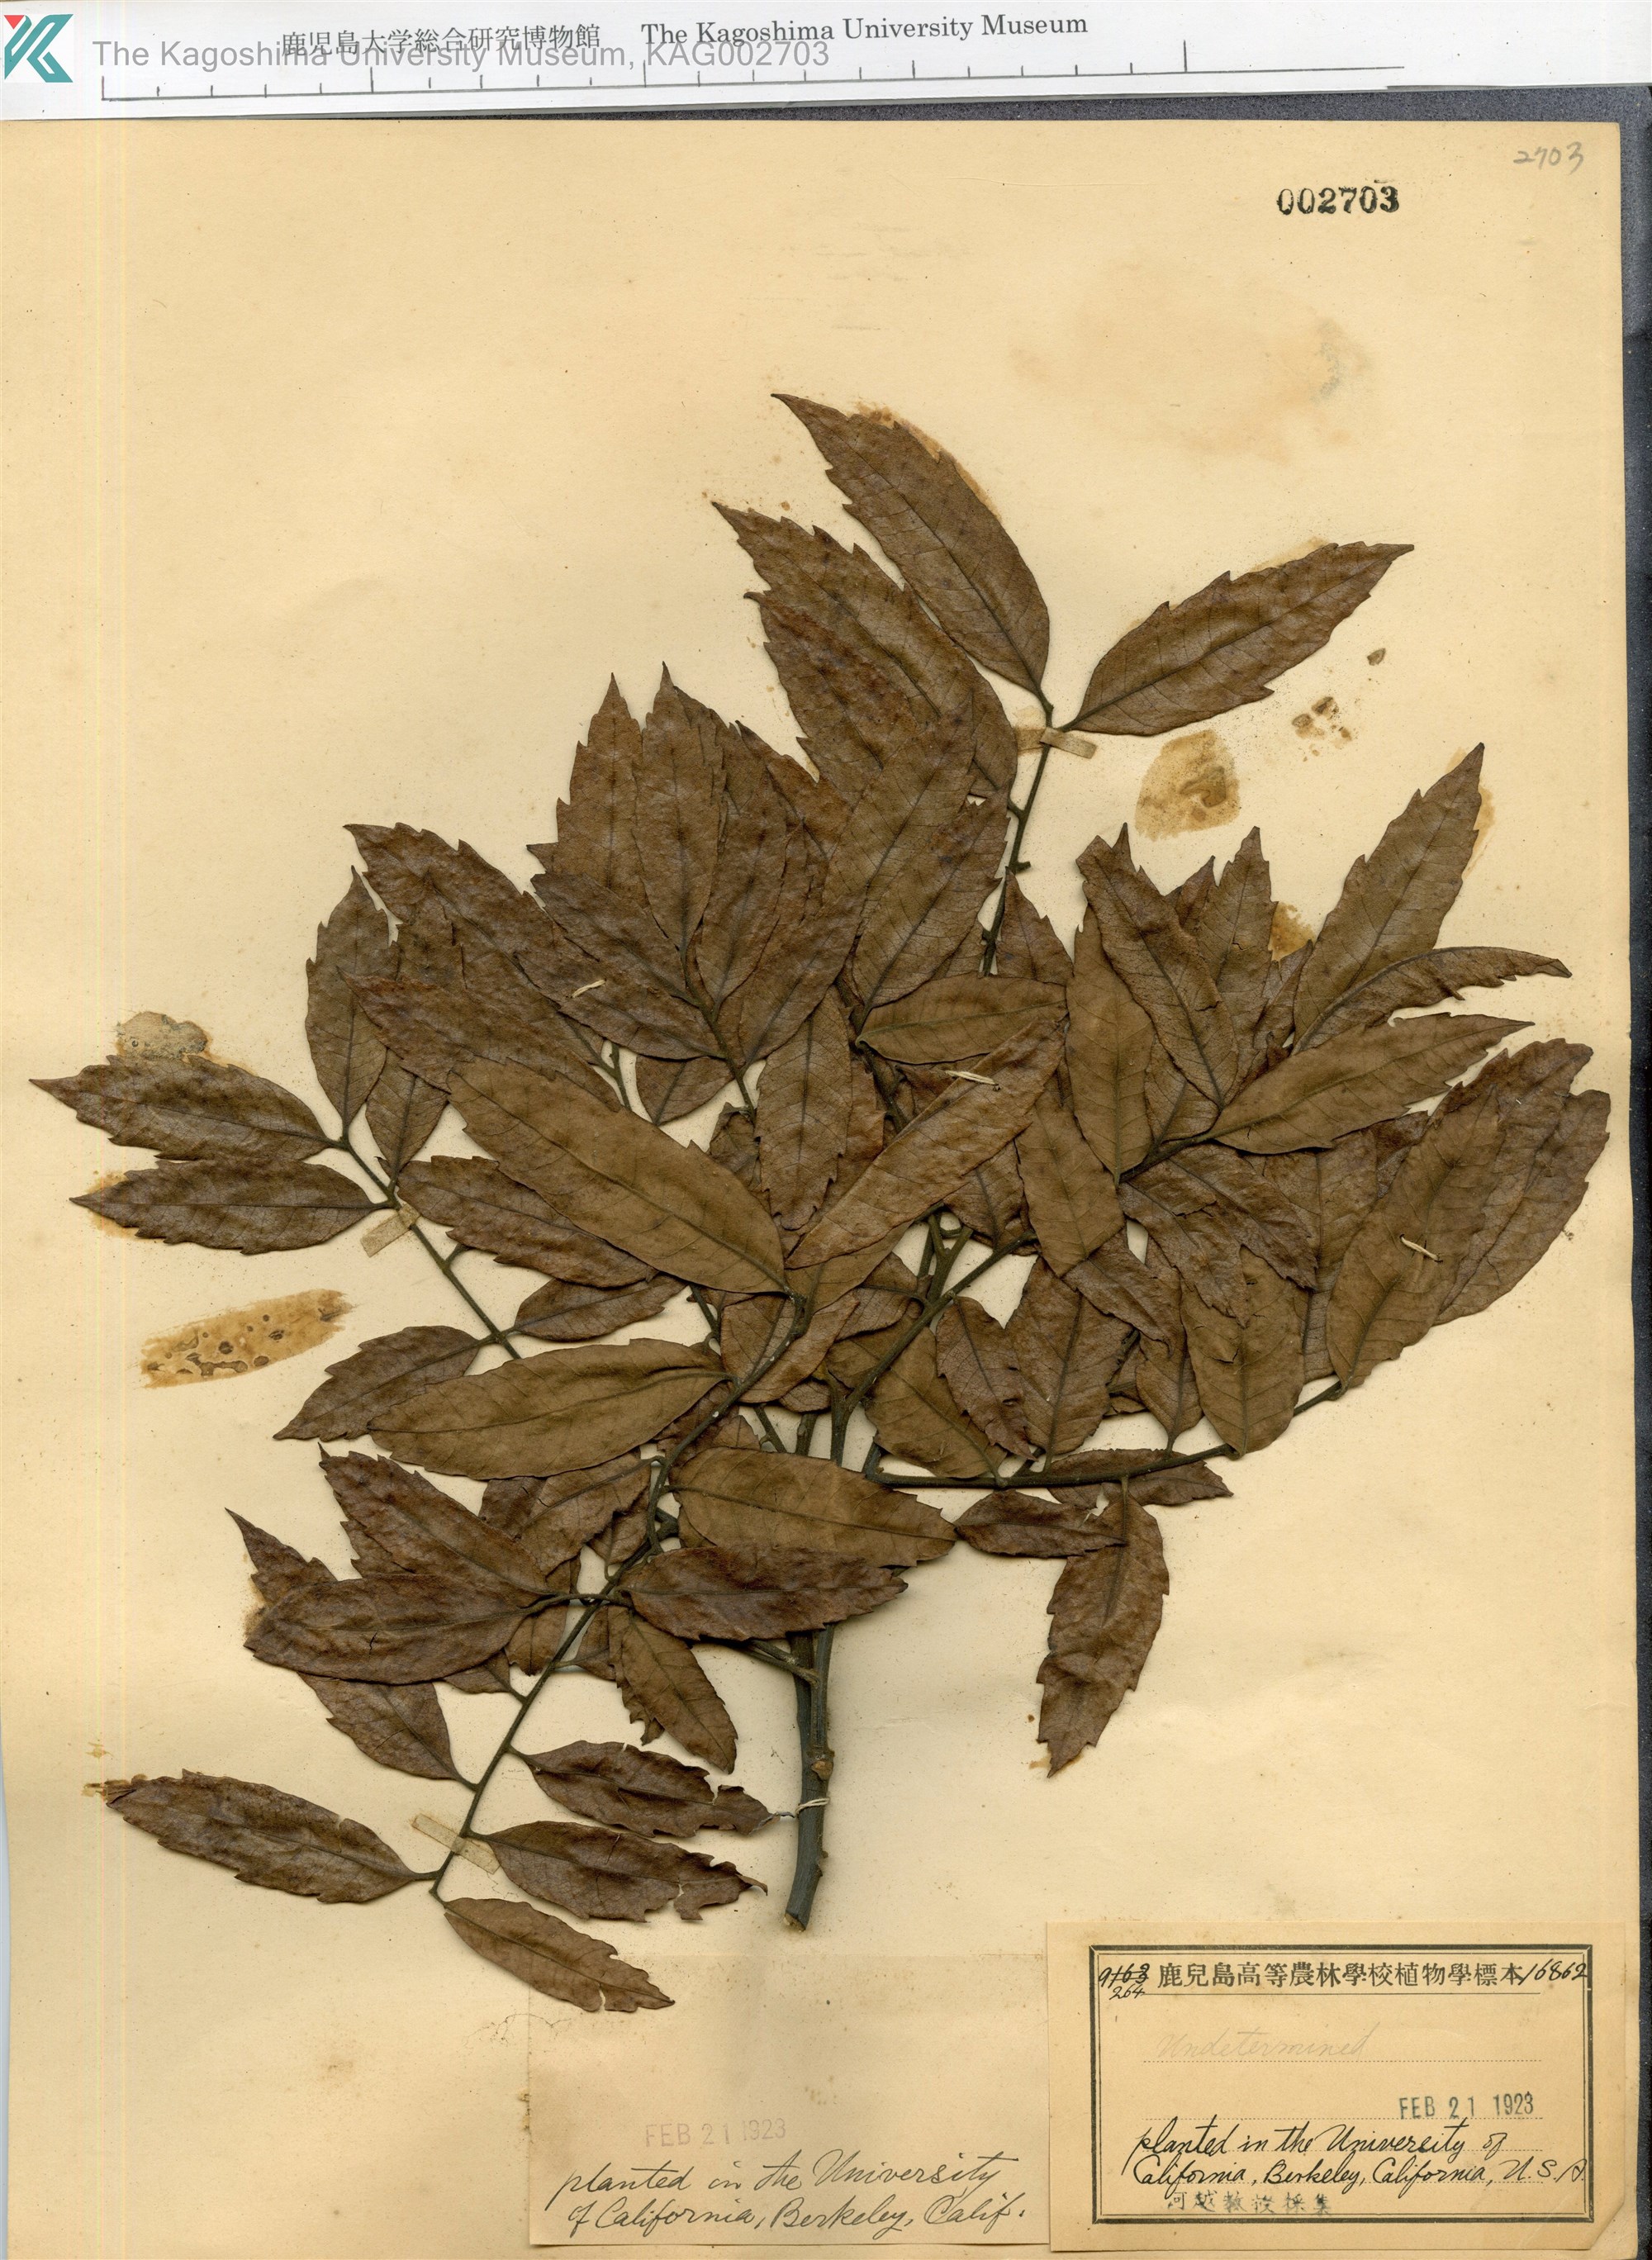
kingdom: Plantae
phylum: Tracheophyta
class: Magnoliopsida
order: Sapindales
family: Anacardiaceae
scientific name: Anacardiaceae
